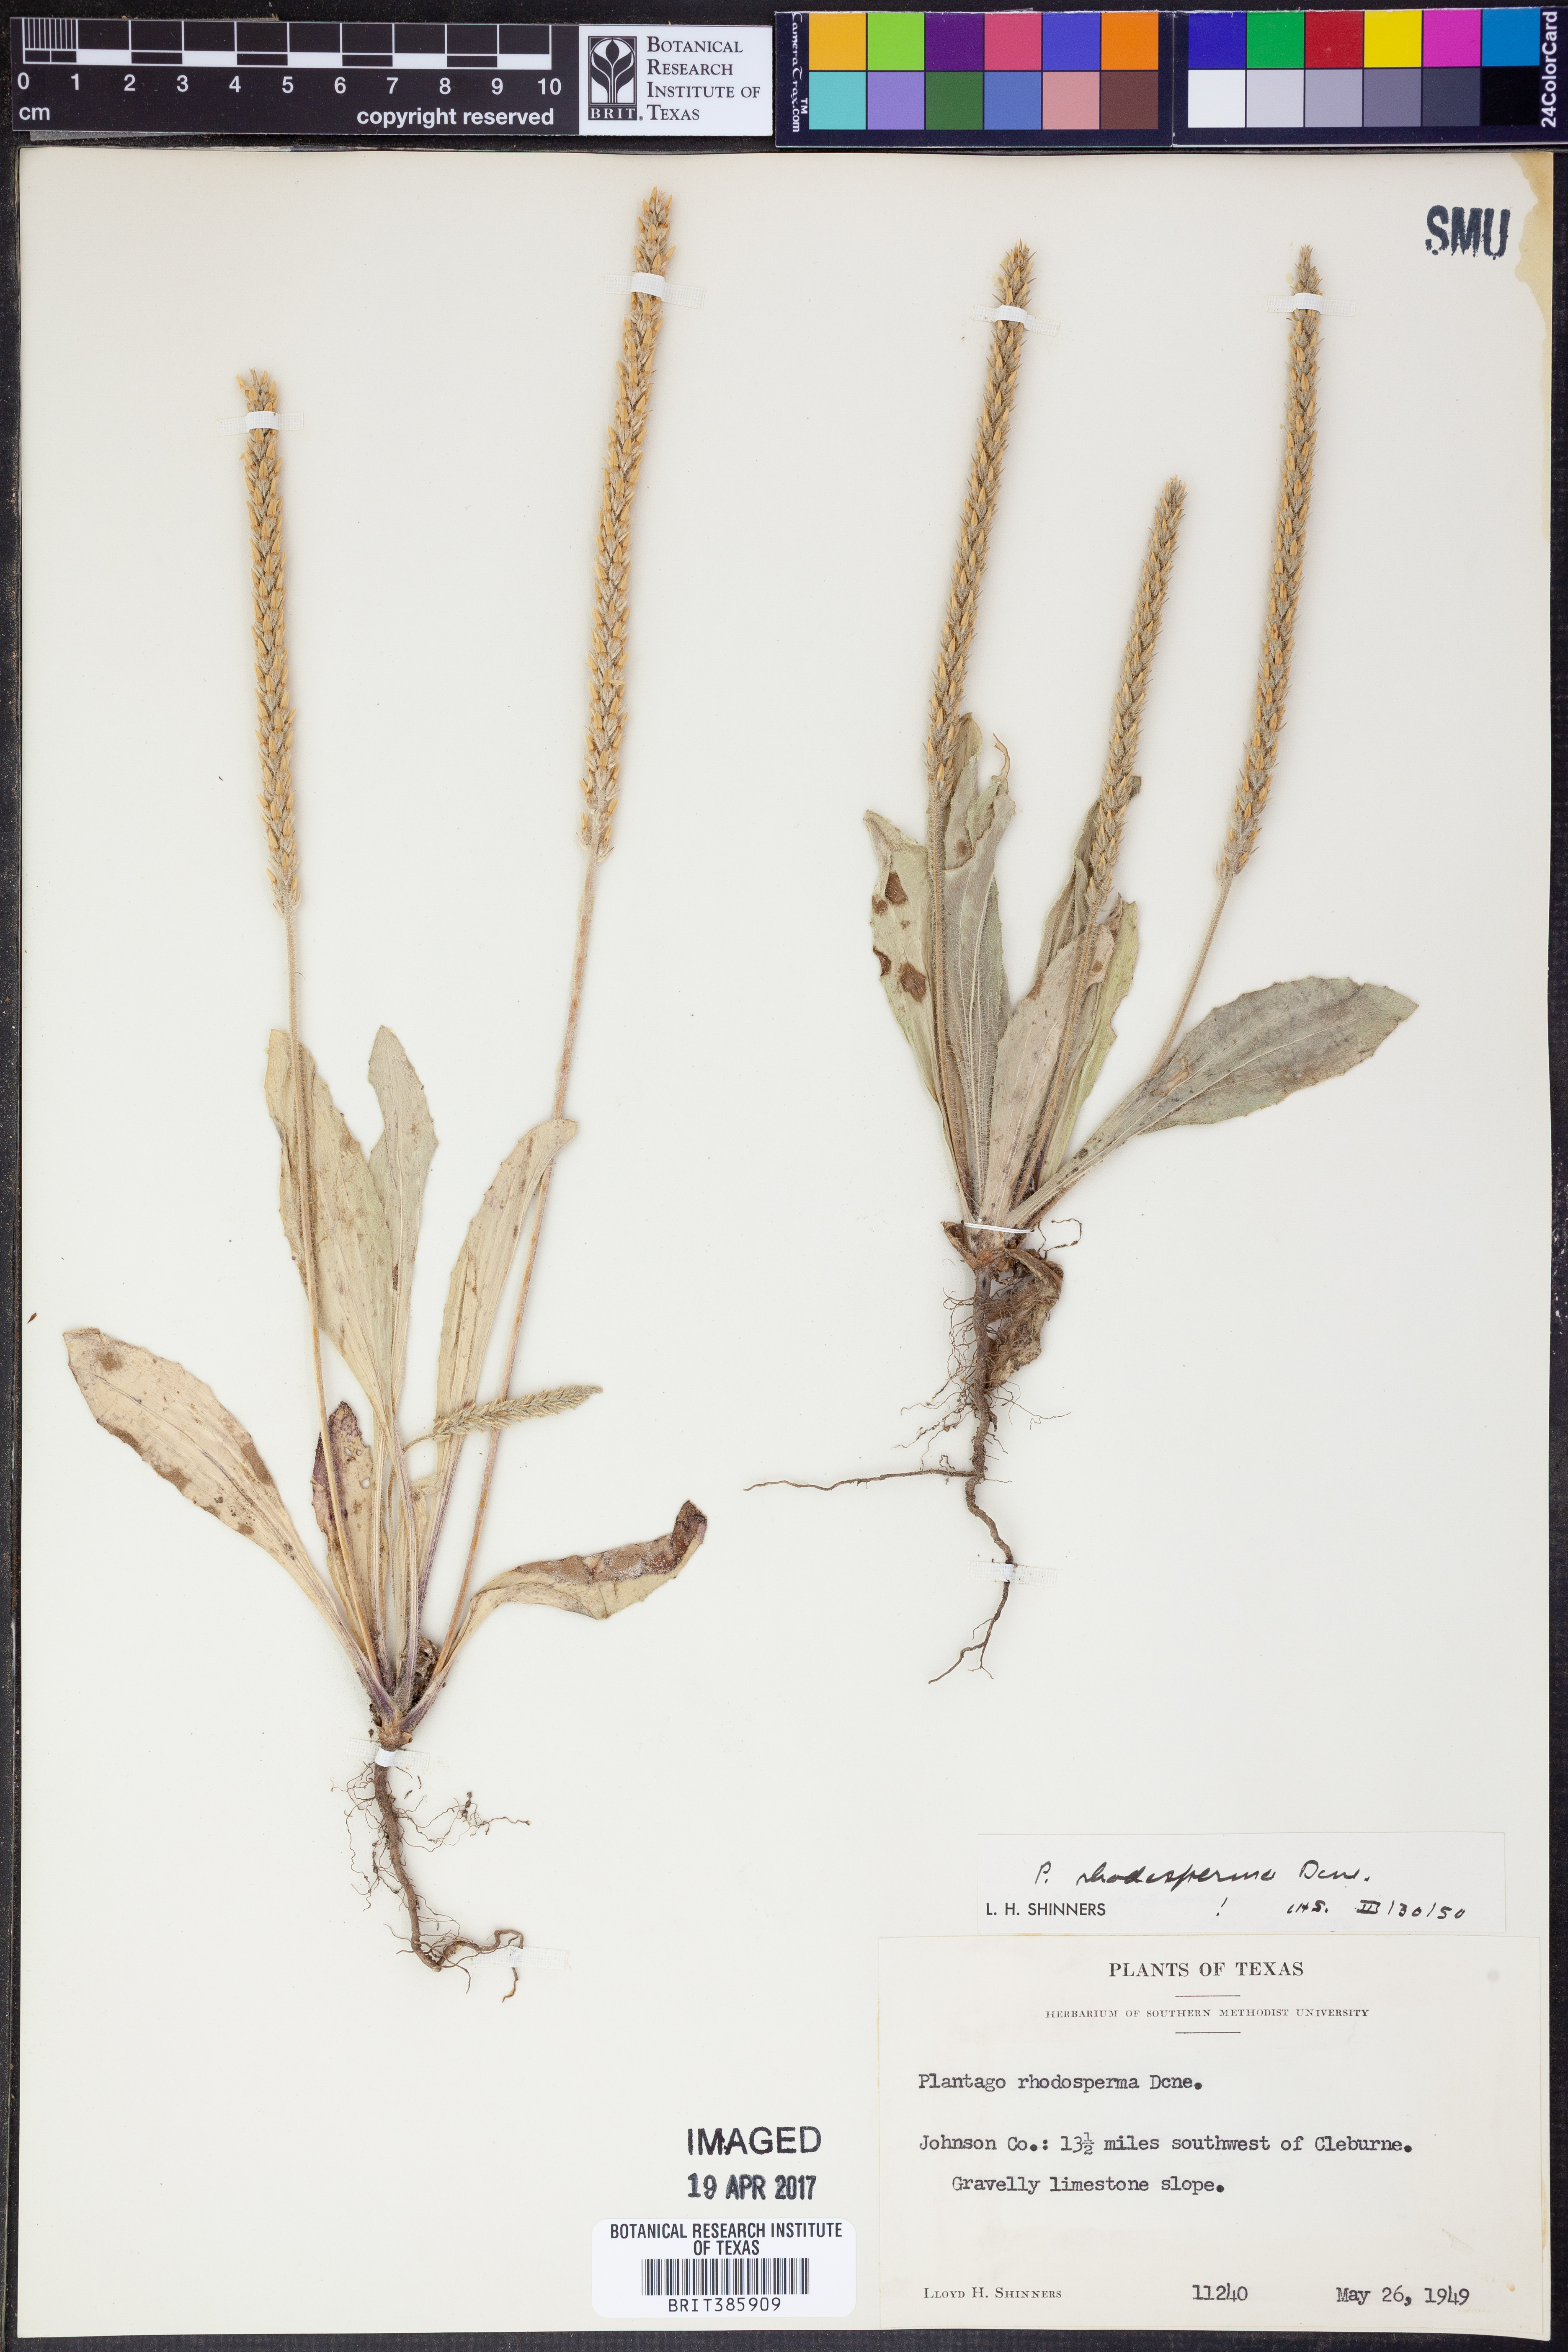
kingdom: Plantae
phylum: Tracheophyta
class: Magnoliopsida
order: Lamiales
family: Plantaginaceae
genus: Plantago
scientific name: Plantago rhodosperma
